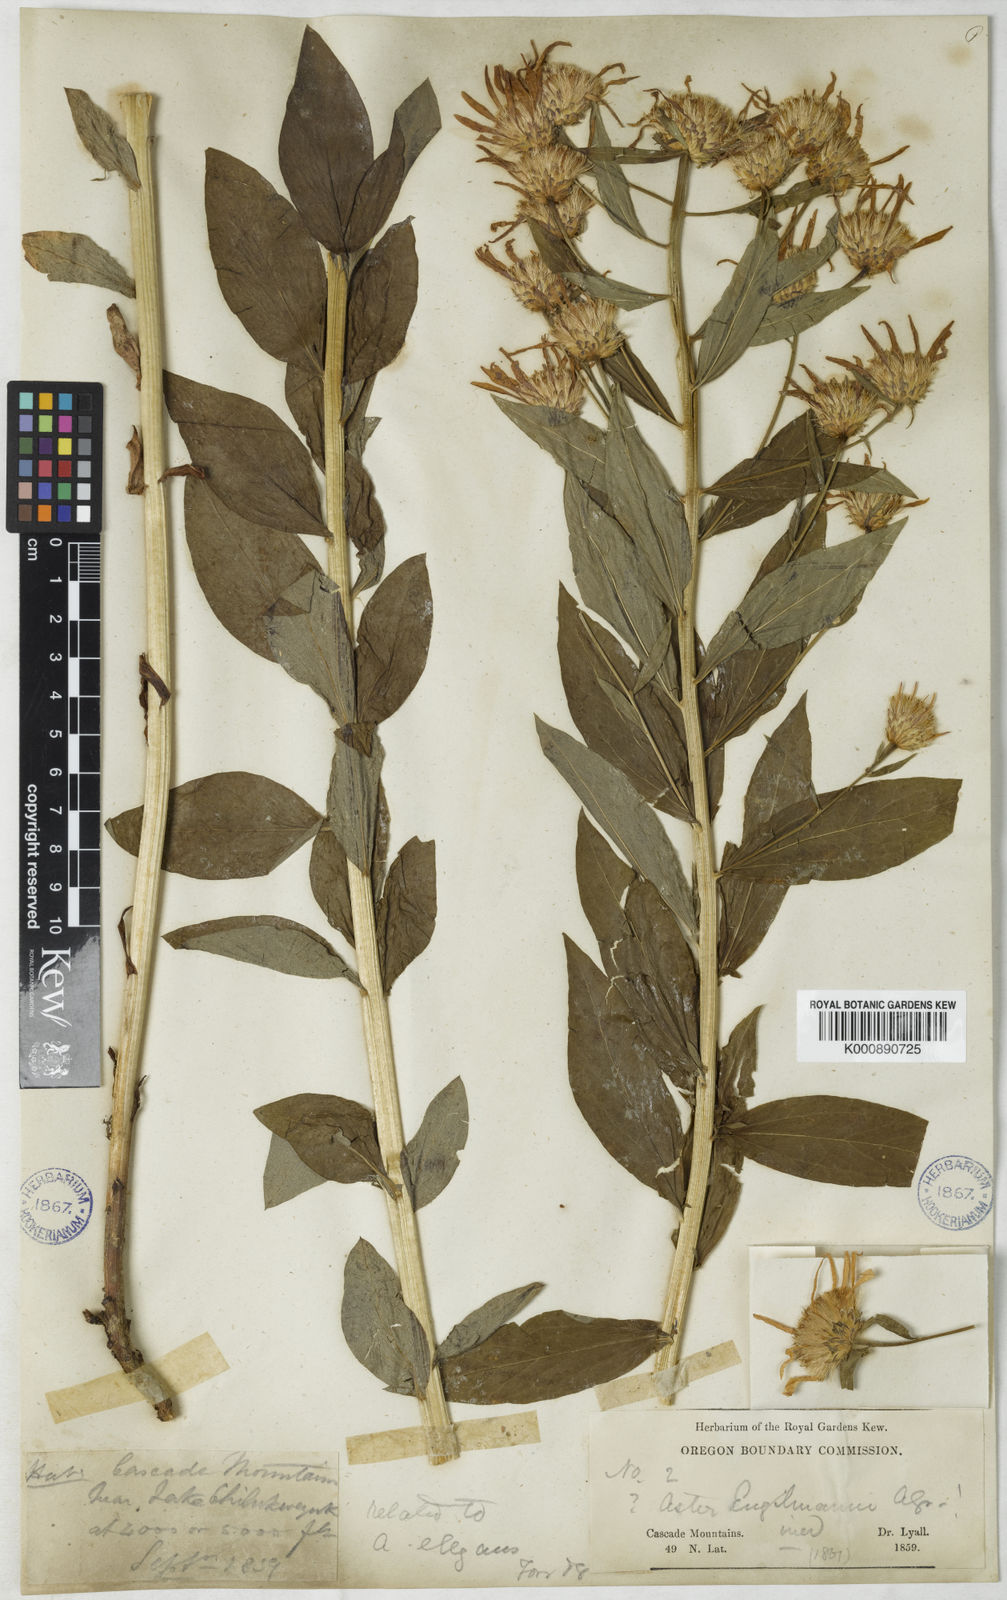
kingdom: Plantae
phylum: Tracheophyta
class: Magnoliopsida
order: Asterales
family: Asteraceae
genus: Aster
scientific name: Aster
